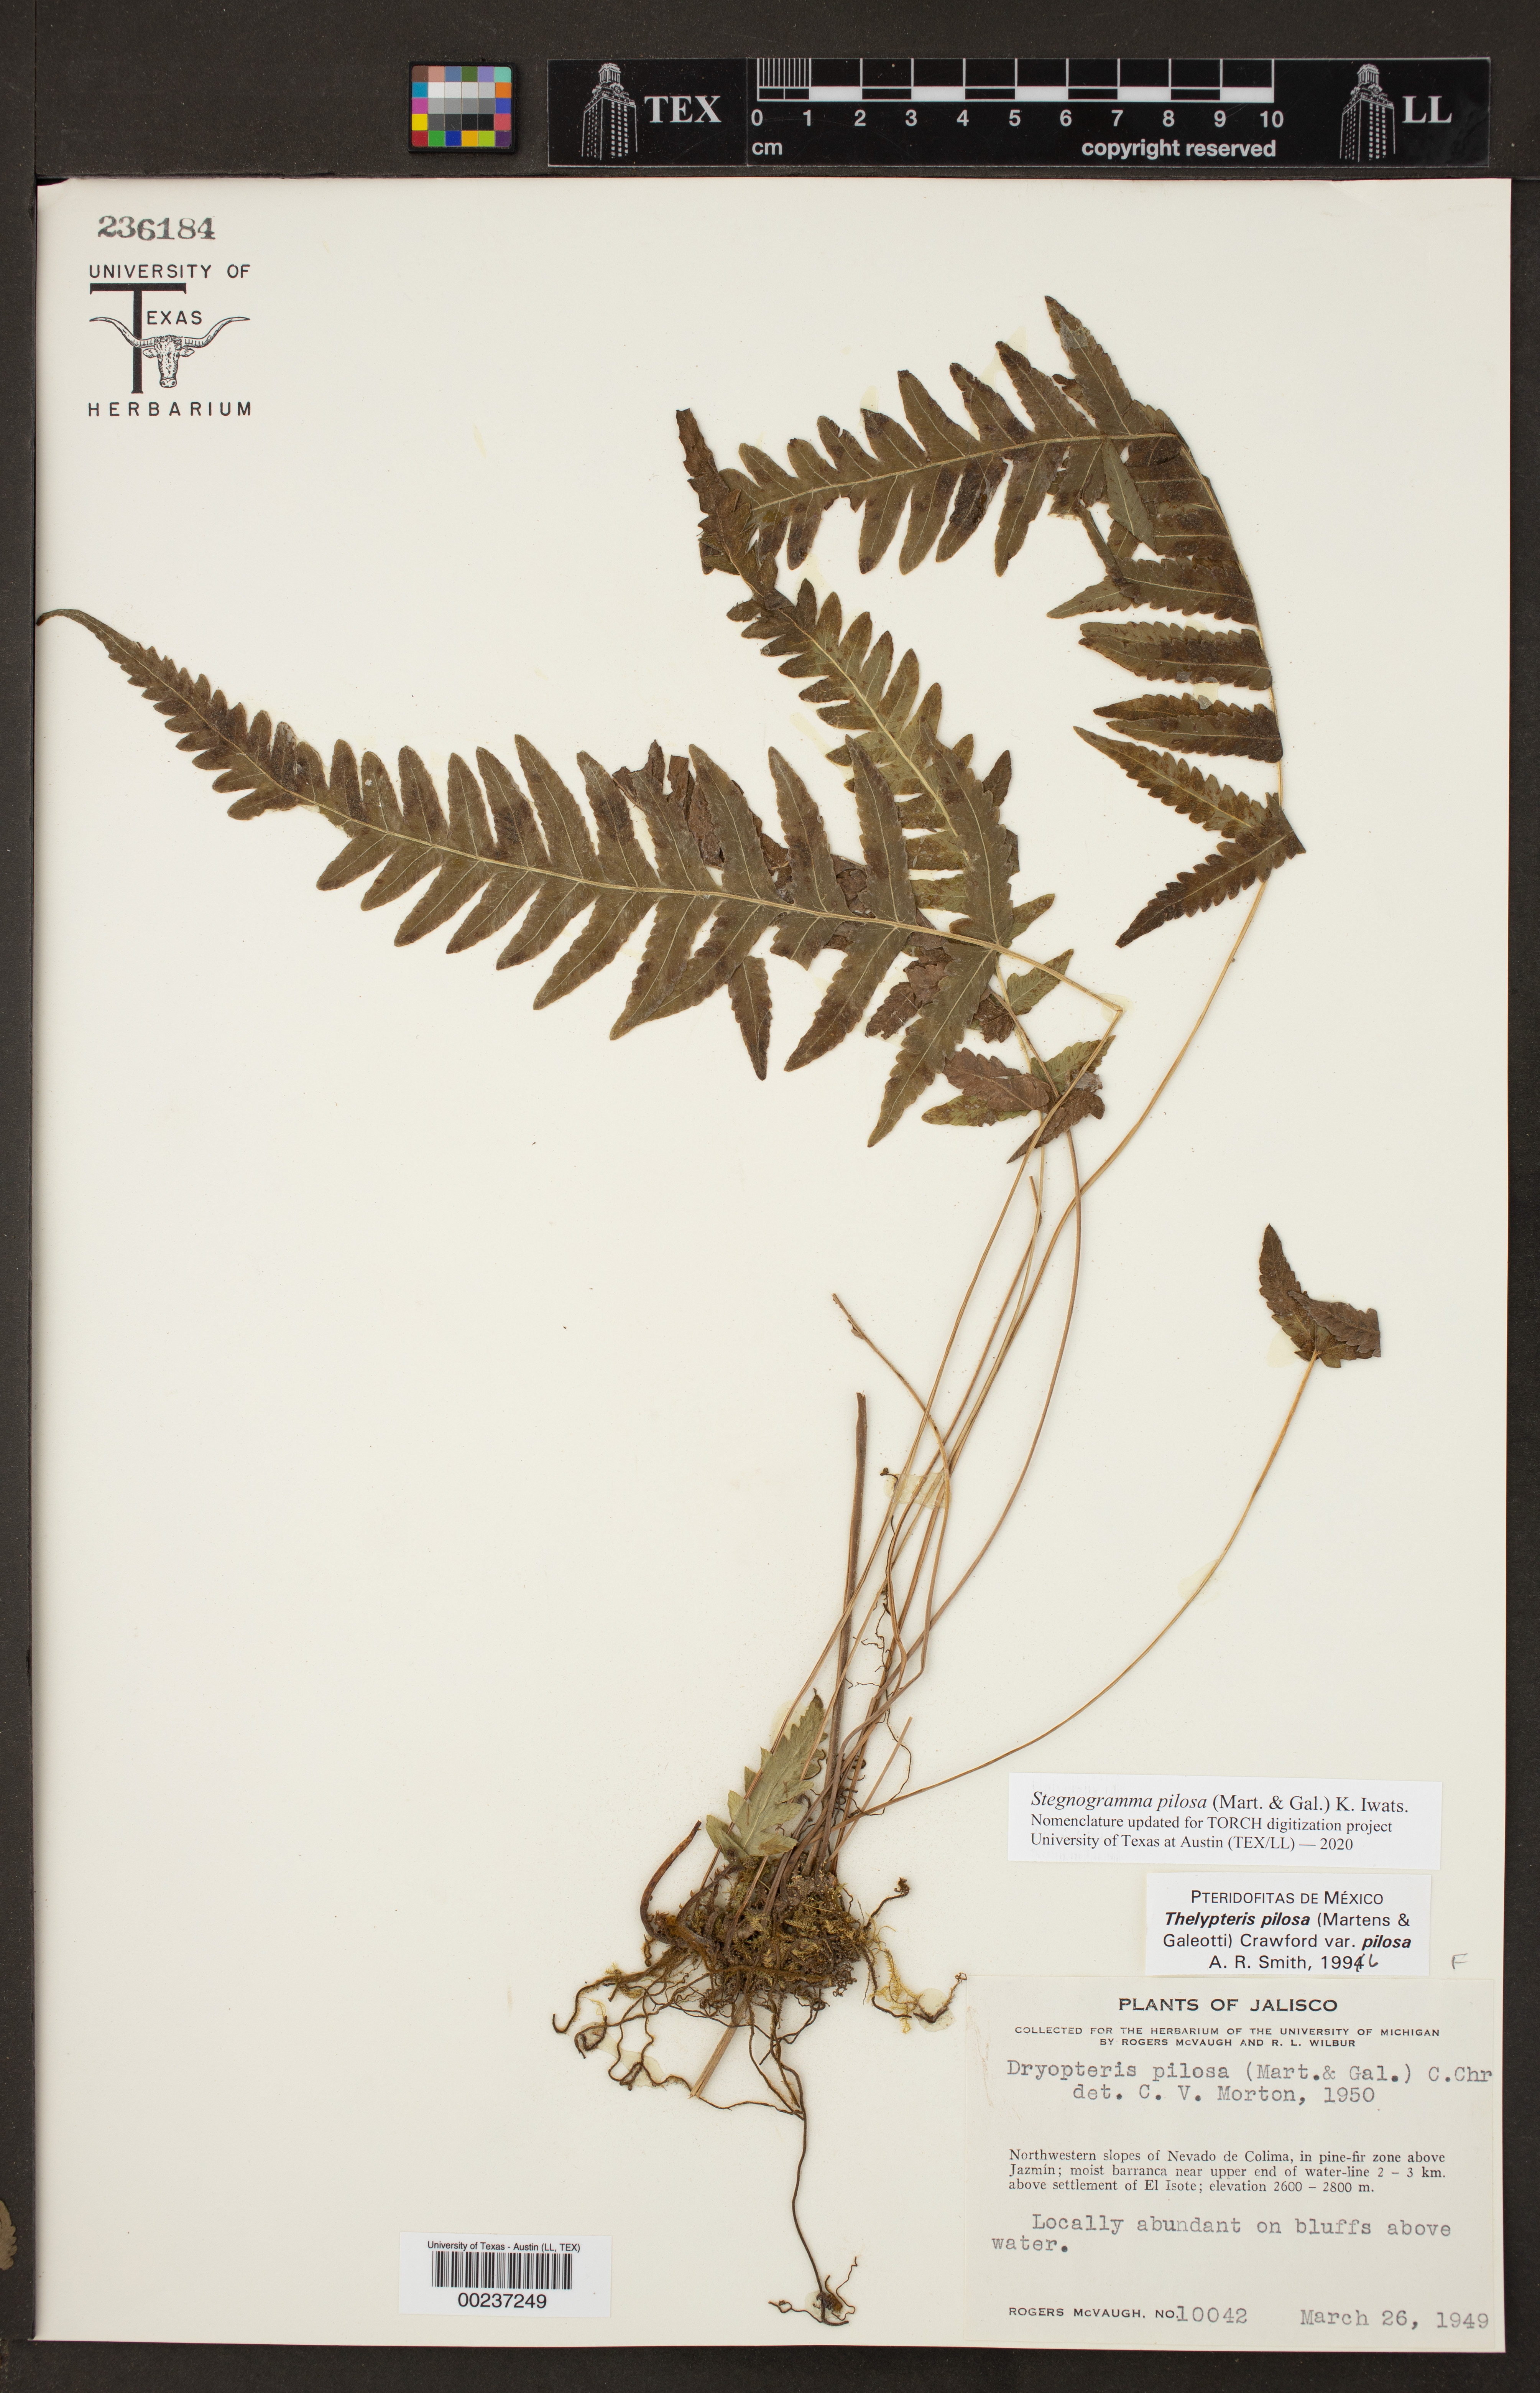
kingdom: Plantae
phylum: Tracheophyta
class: Polypodiopsida
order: Polypodiales
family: Thelypteridaceae
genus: Leptogramma
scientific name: Leptogramma pilosa
